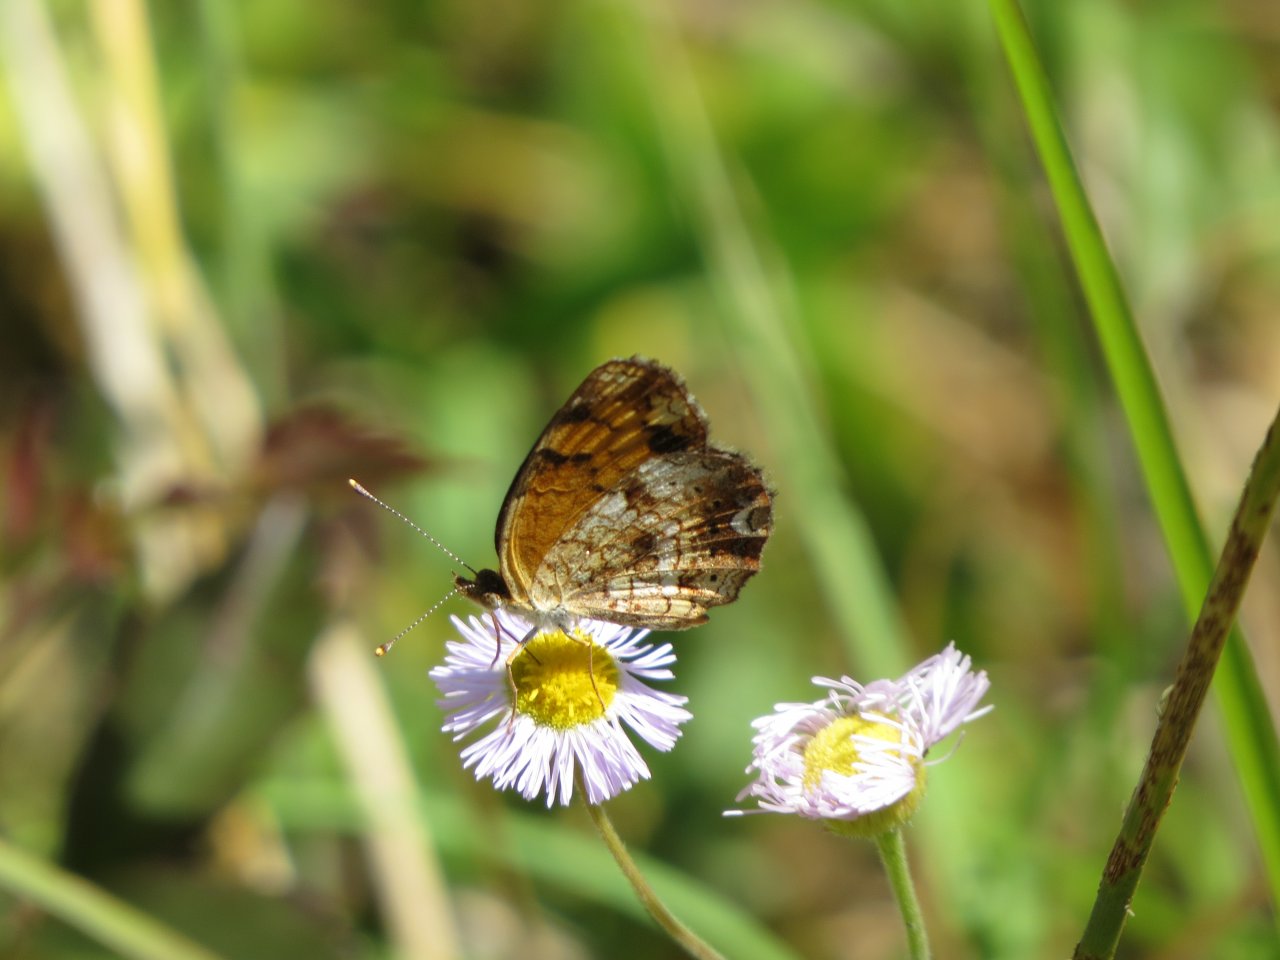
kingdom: Animalia
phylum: Arthropoda
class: Insecta
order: Lepidoptera
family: Nymphalidae
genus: Phyciodes
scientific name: Phyciodes tharos
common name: Pearl Crescent
